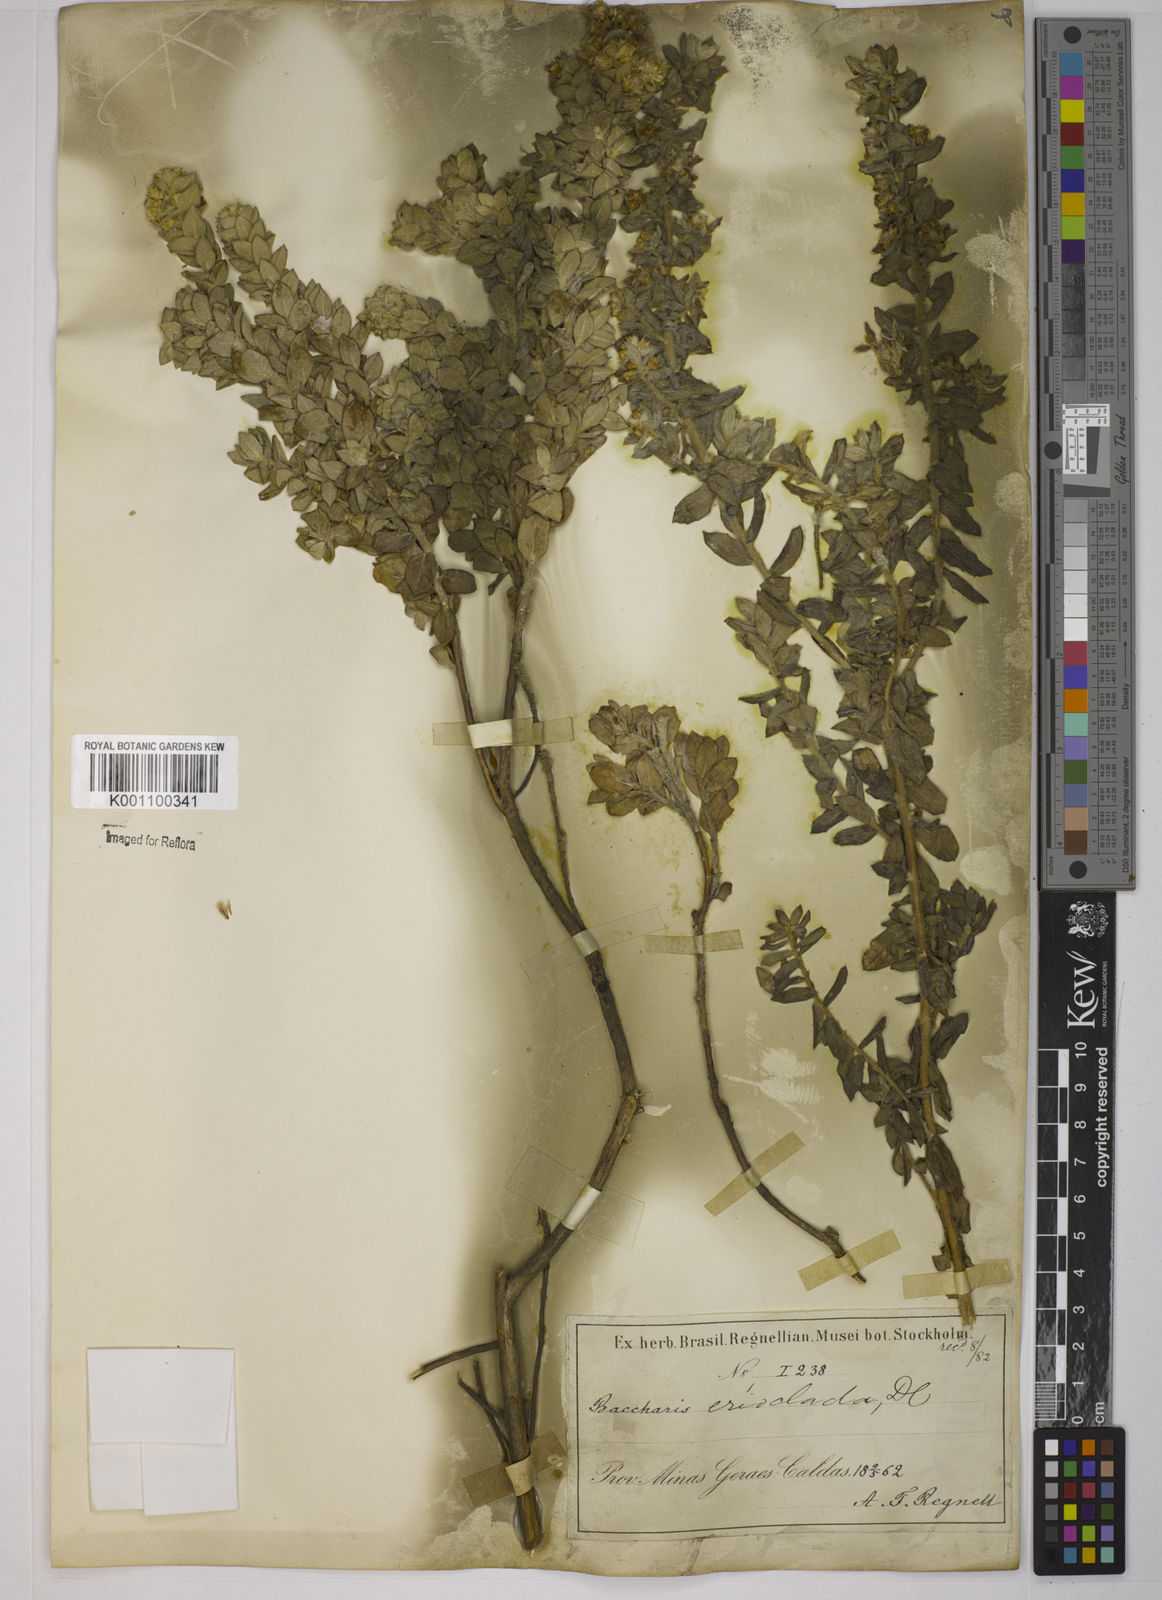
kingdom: Plantae
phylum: Tracheophyta
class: Magnoliopsida
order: Asterales
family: Asteraceae
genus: Baccharis
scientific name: Baccharis erioclada
